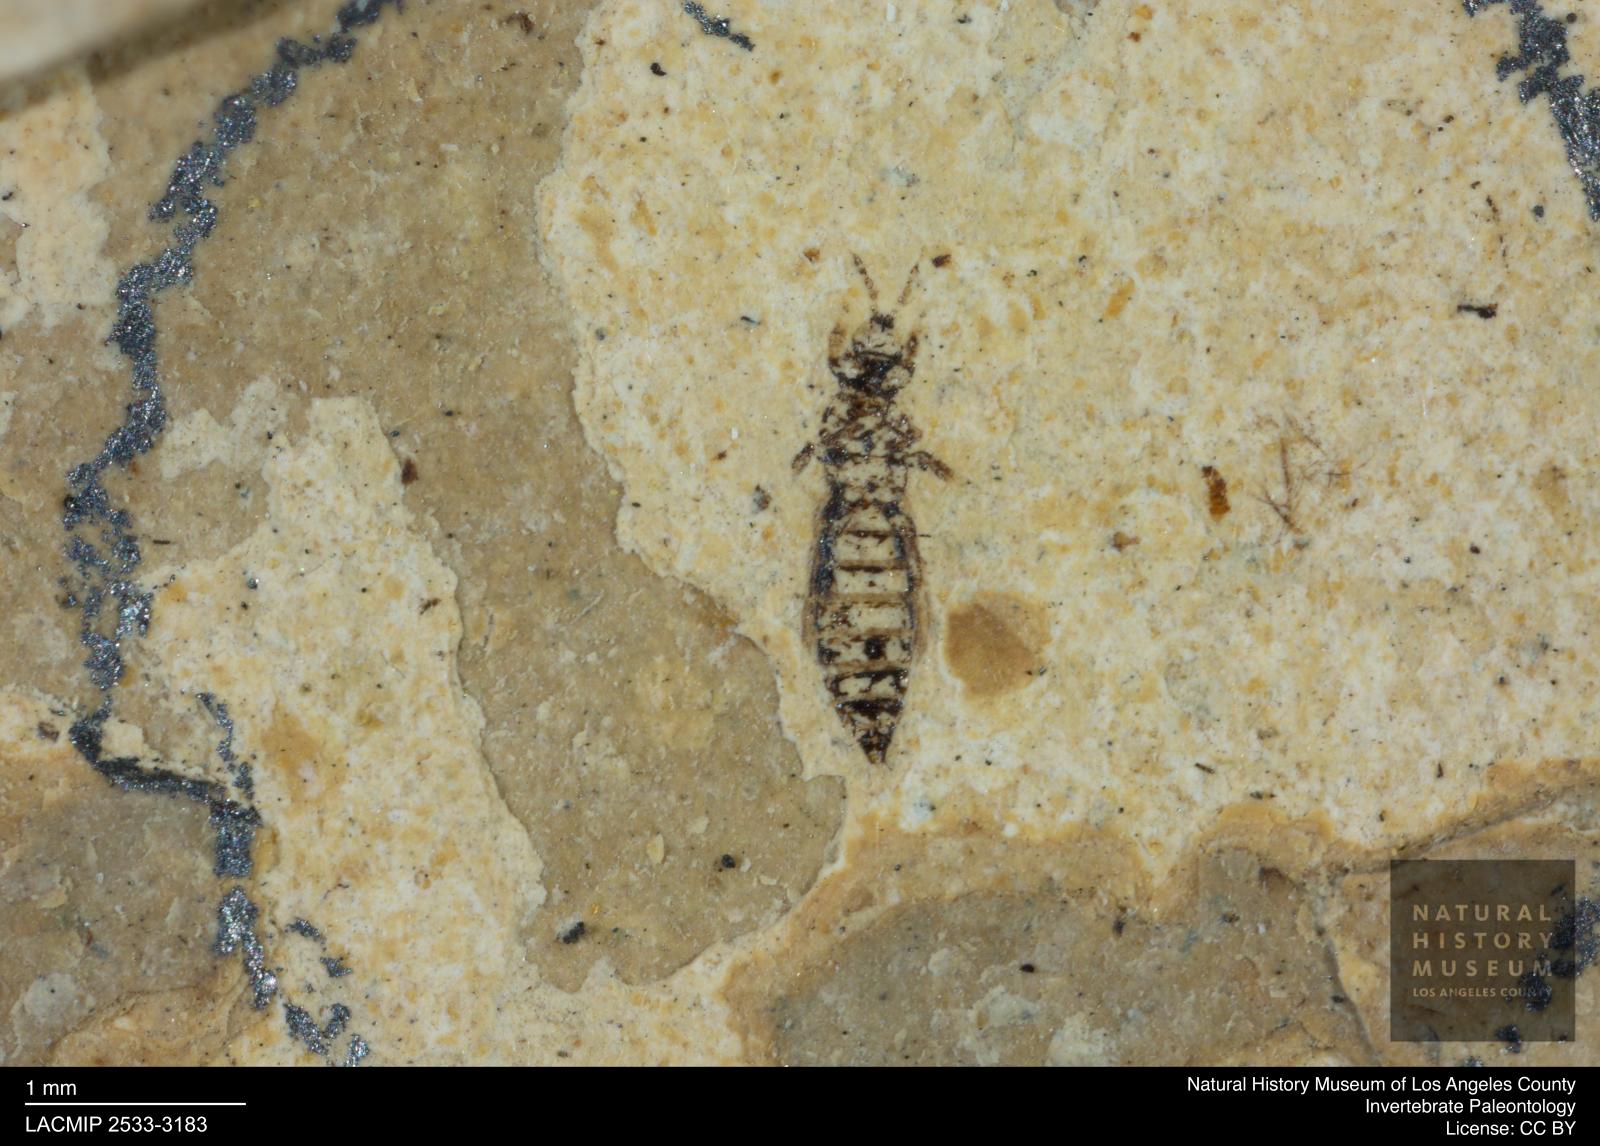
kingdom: Animalia
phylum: Arthropoda
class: Insecta
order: Thysanoptera
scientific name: Thysanoptera
